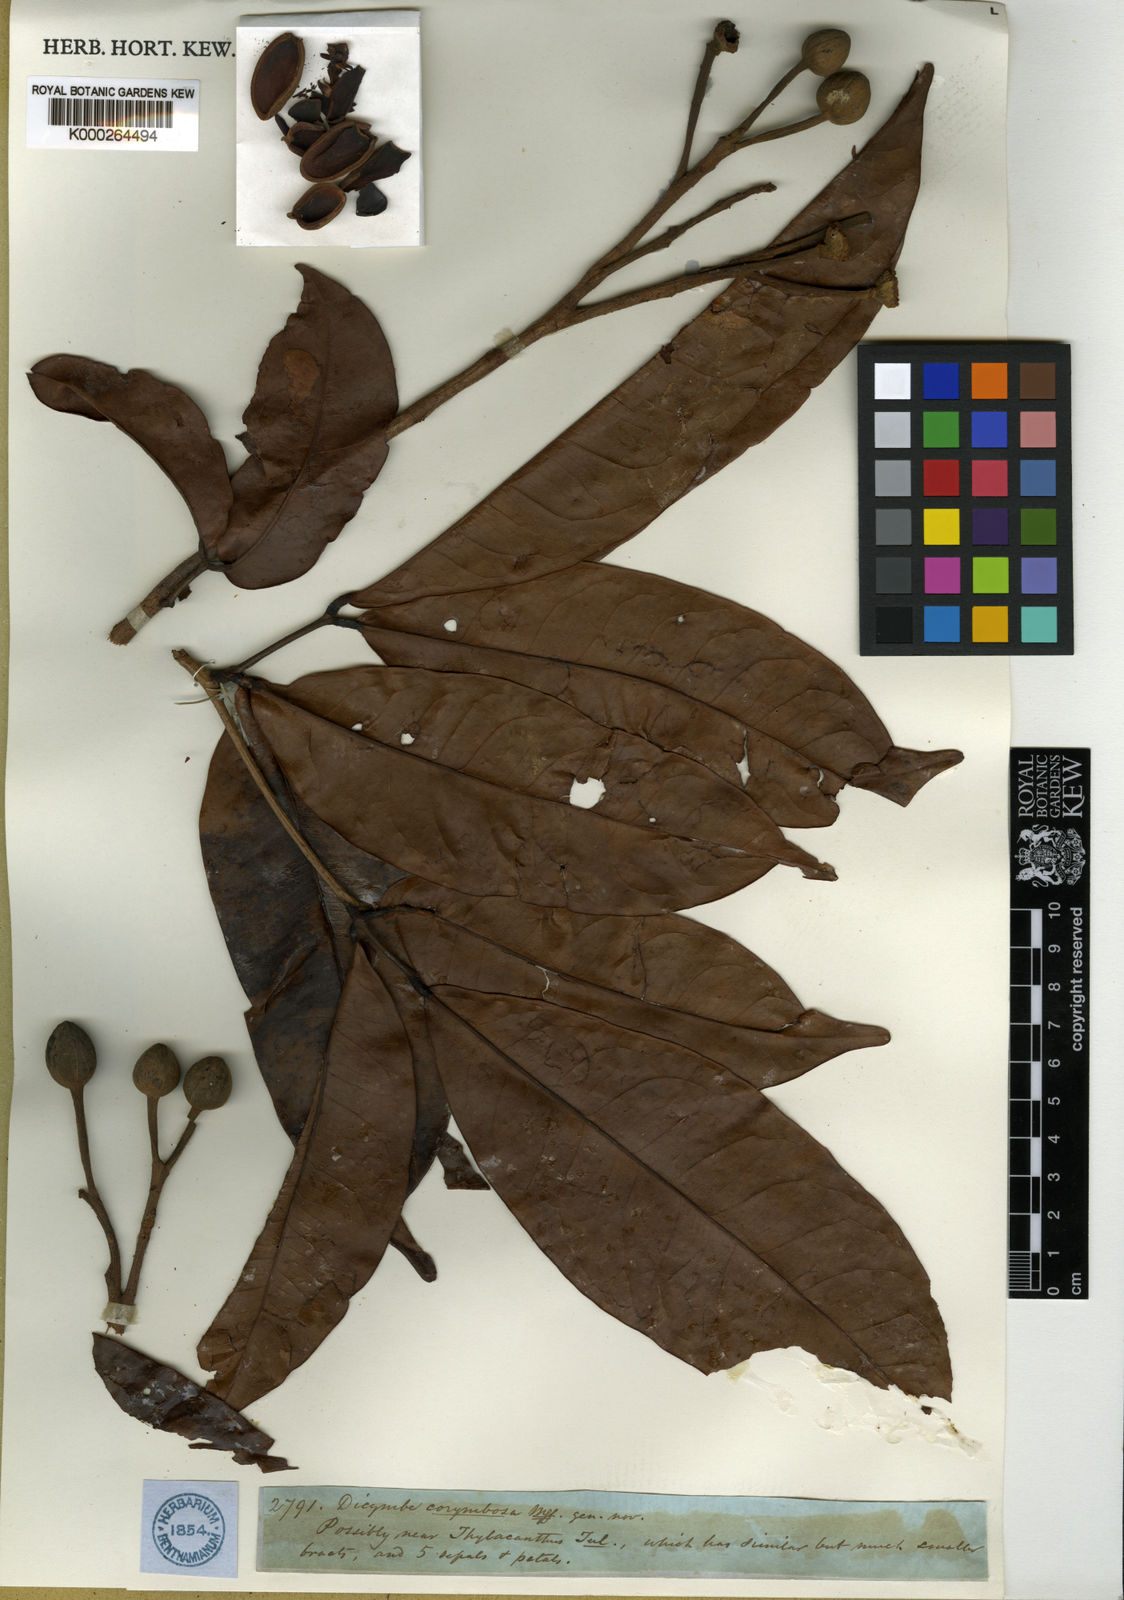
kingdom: Plantae
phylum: Tracheophyta
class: Magnoliopsida
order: Fabales
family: Fabaceae
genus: Dicymbe
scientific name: Dicymbe corymbosa
